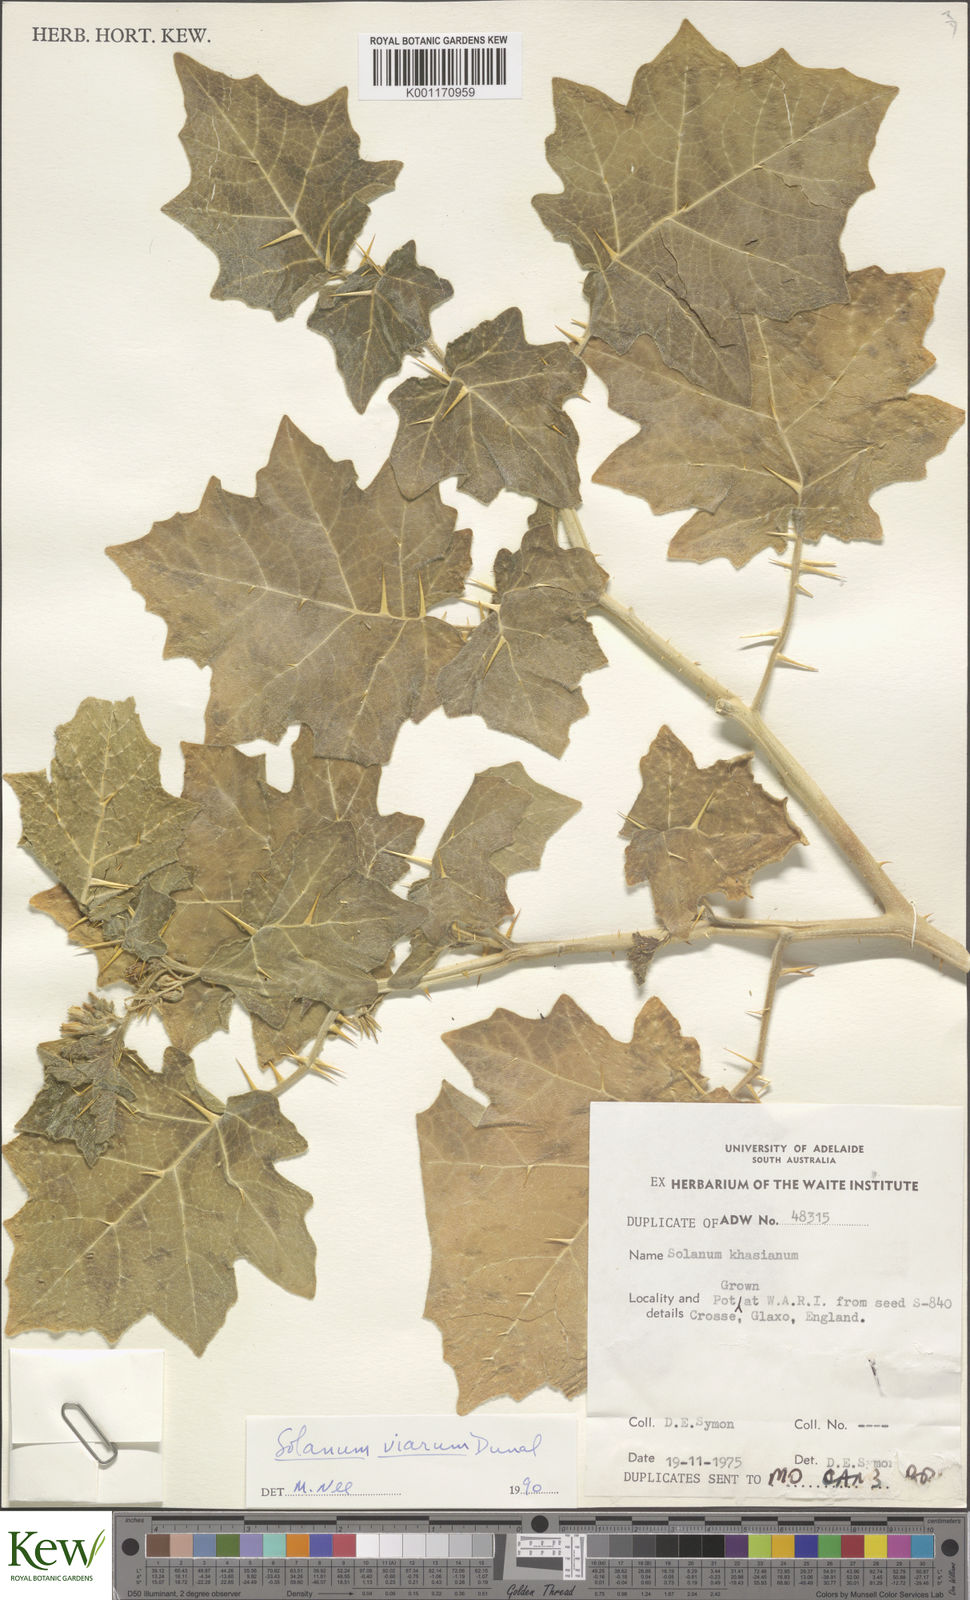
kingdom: Plantae
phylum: Tracheophyta
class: Magnoliopsida
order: Solanales
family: Solanaceae
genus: Solanum
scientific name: Solanum viarum
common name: Tropical soda apple
